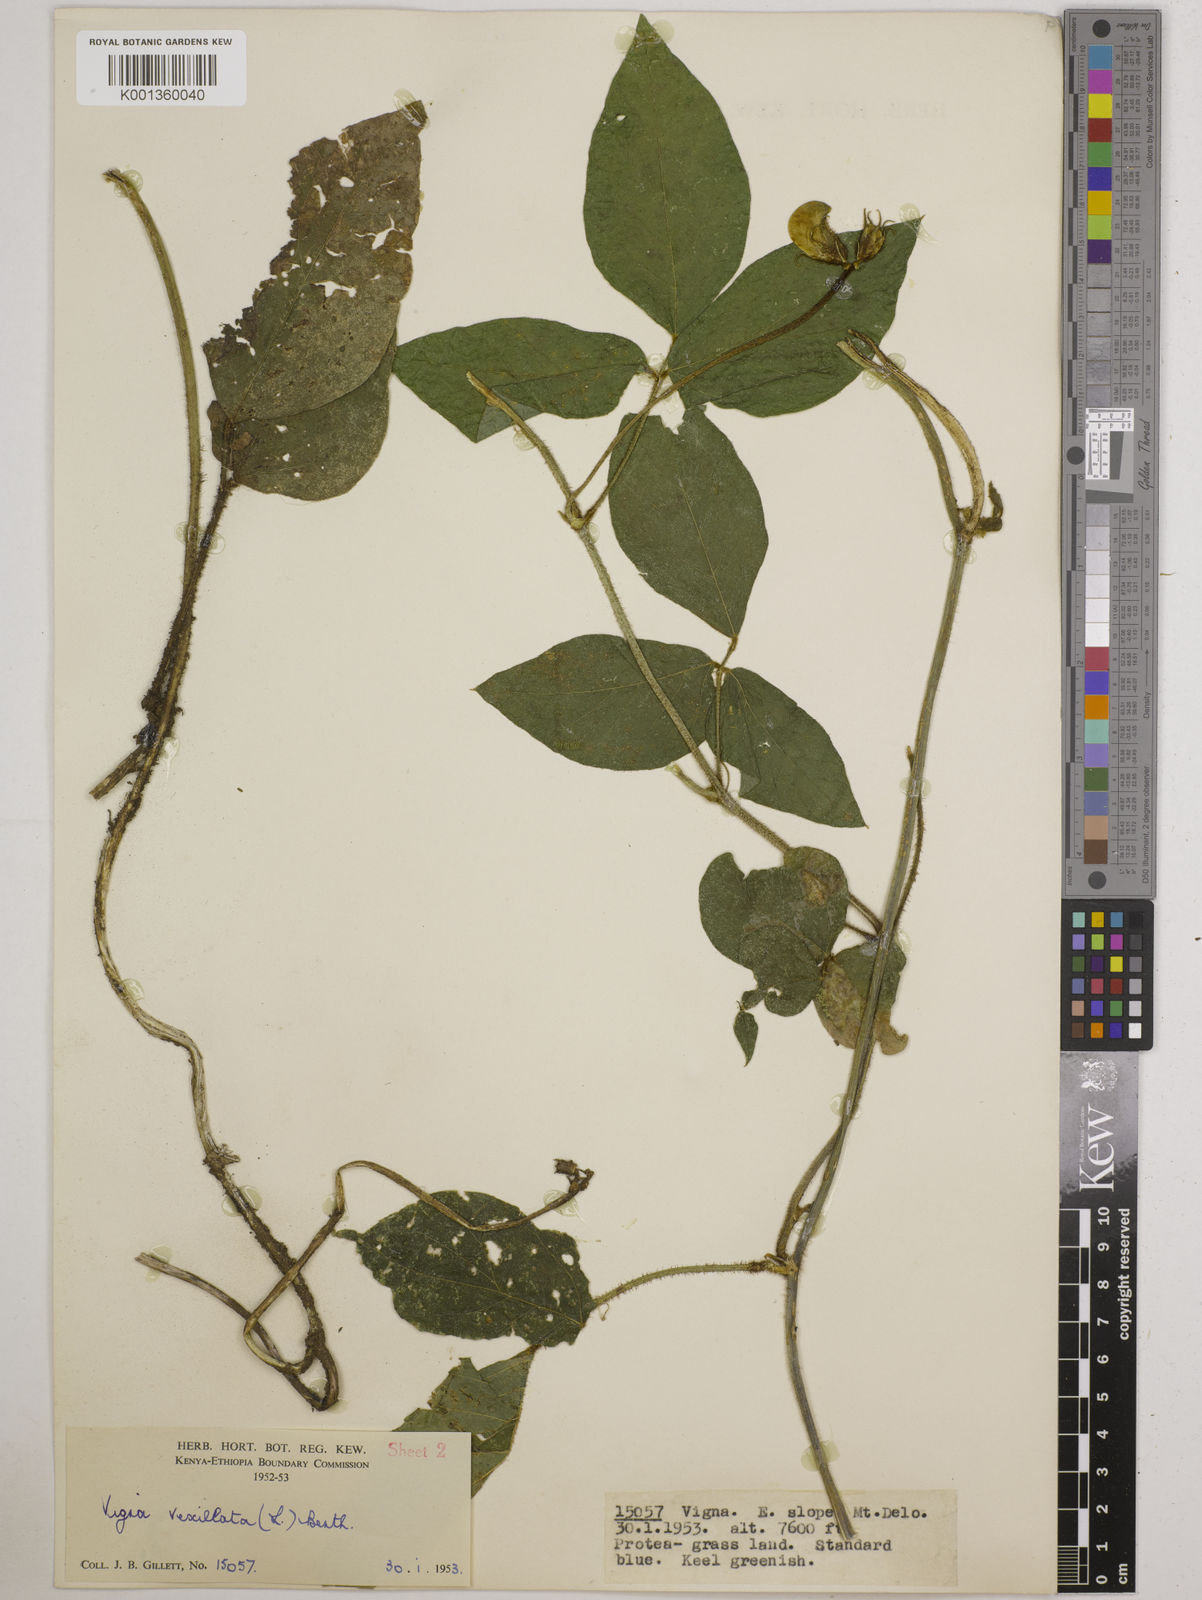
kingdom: Plantae
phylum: Tracheophyta
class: Magnoliopsida
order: Fabales
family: Fabaceae
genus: Vigna
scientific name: Vigna vexillata
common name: Zombi pea
